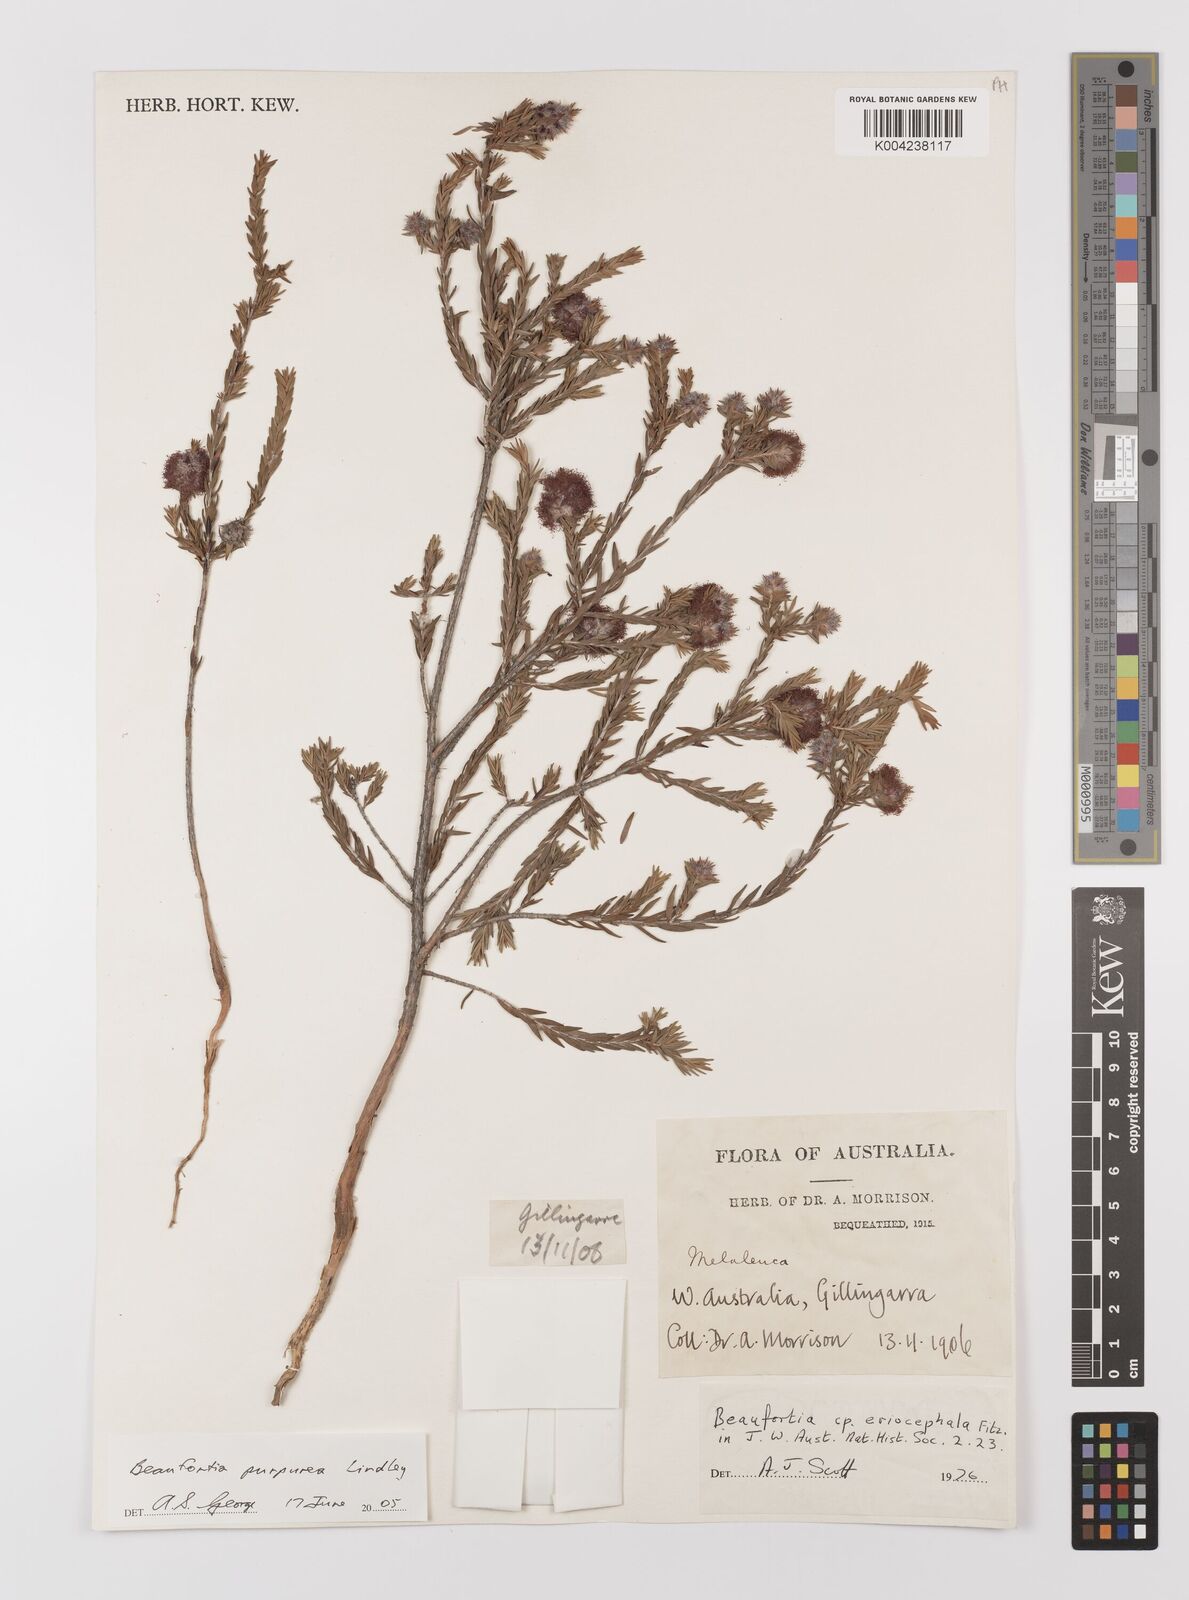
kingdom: Plantae
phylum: Tracheophyta
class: Magnoliopsida
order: Myrtales
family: Myrtaceae
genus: Melaleuca
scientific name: Melaleuca purpurea
